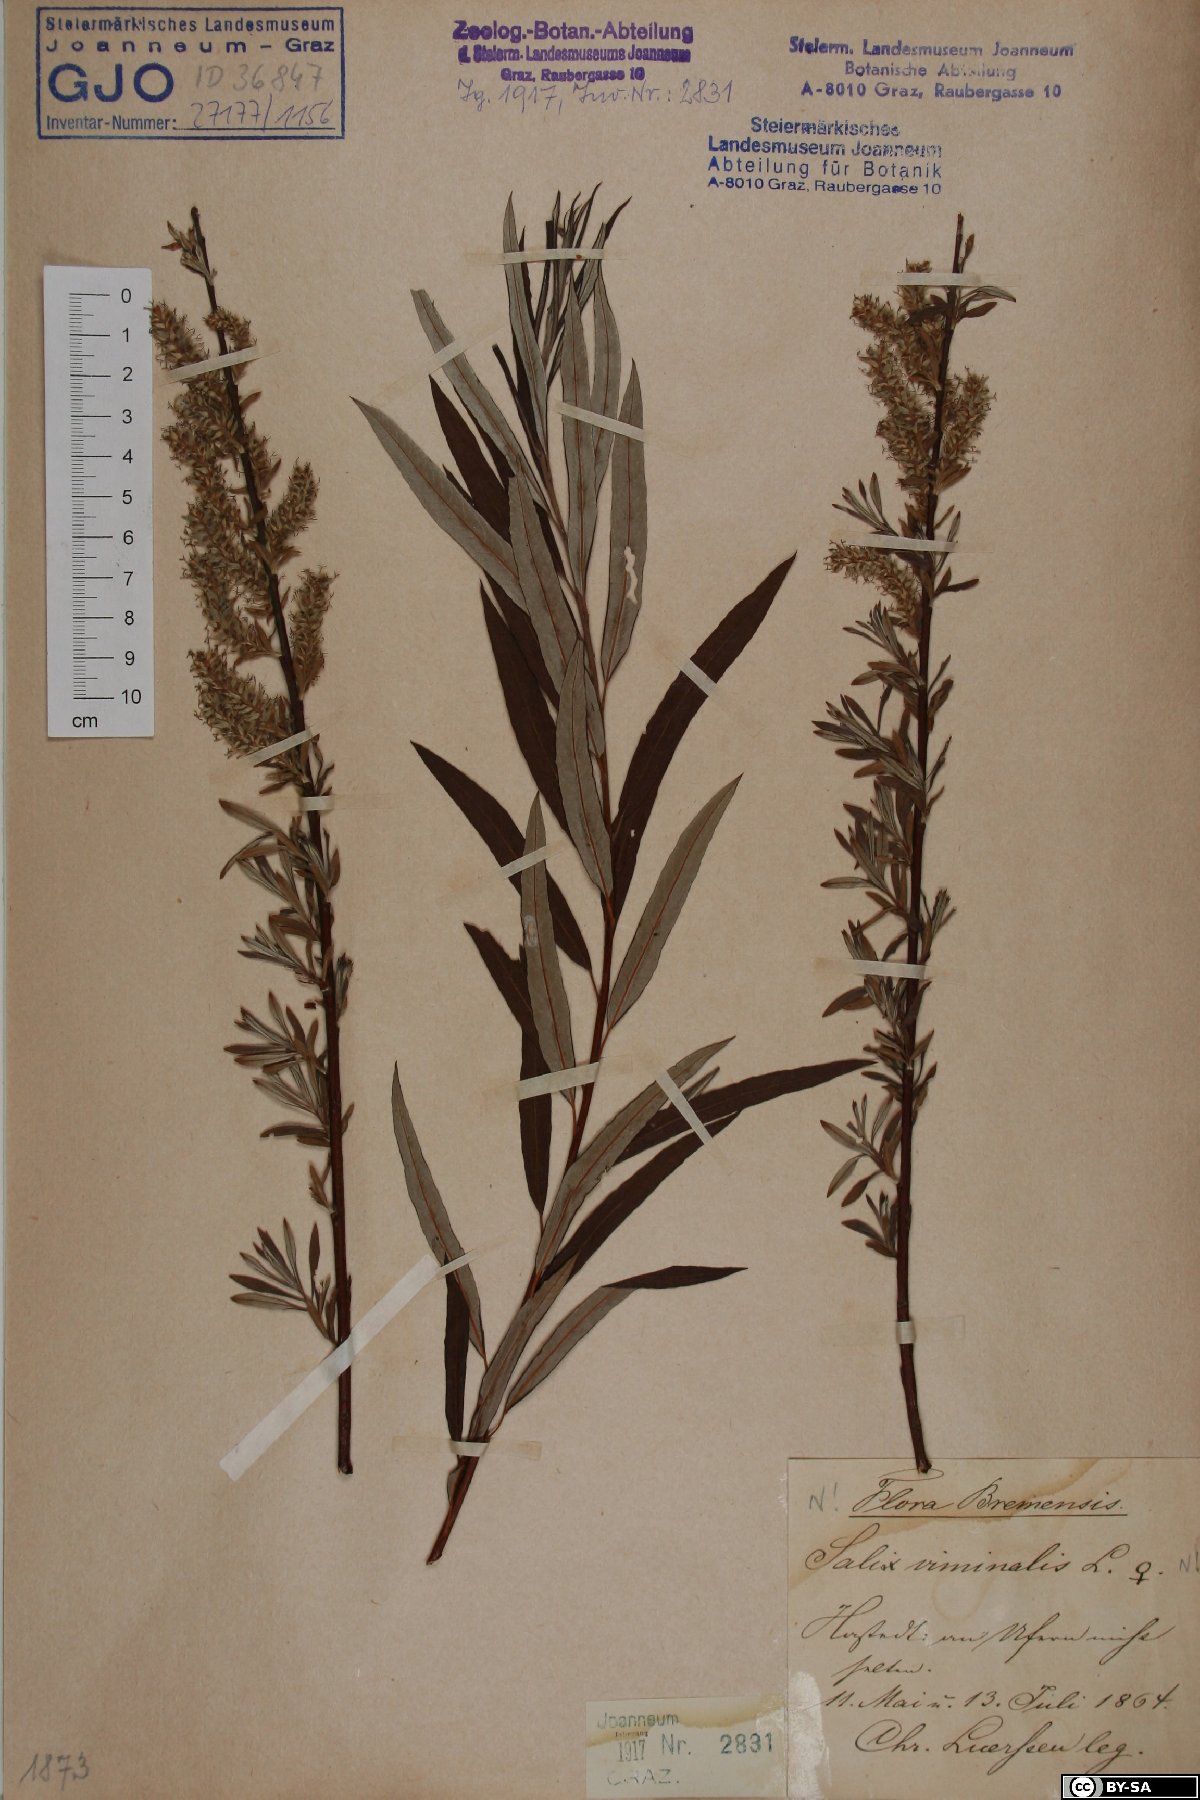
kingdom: Plantae
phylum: Tracheophyta
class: Magnoliopsida
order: Malpighiales
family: Salicaceae
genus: Salix
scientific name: Salix viminalis
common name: Osier
